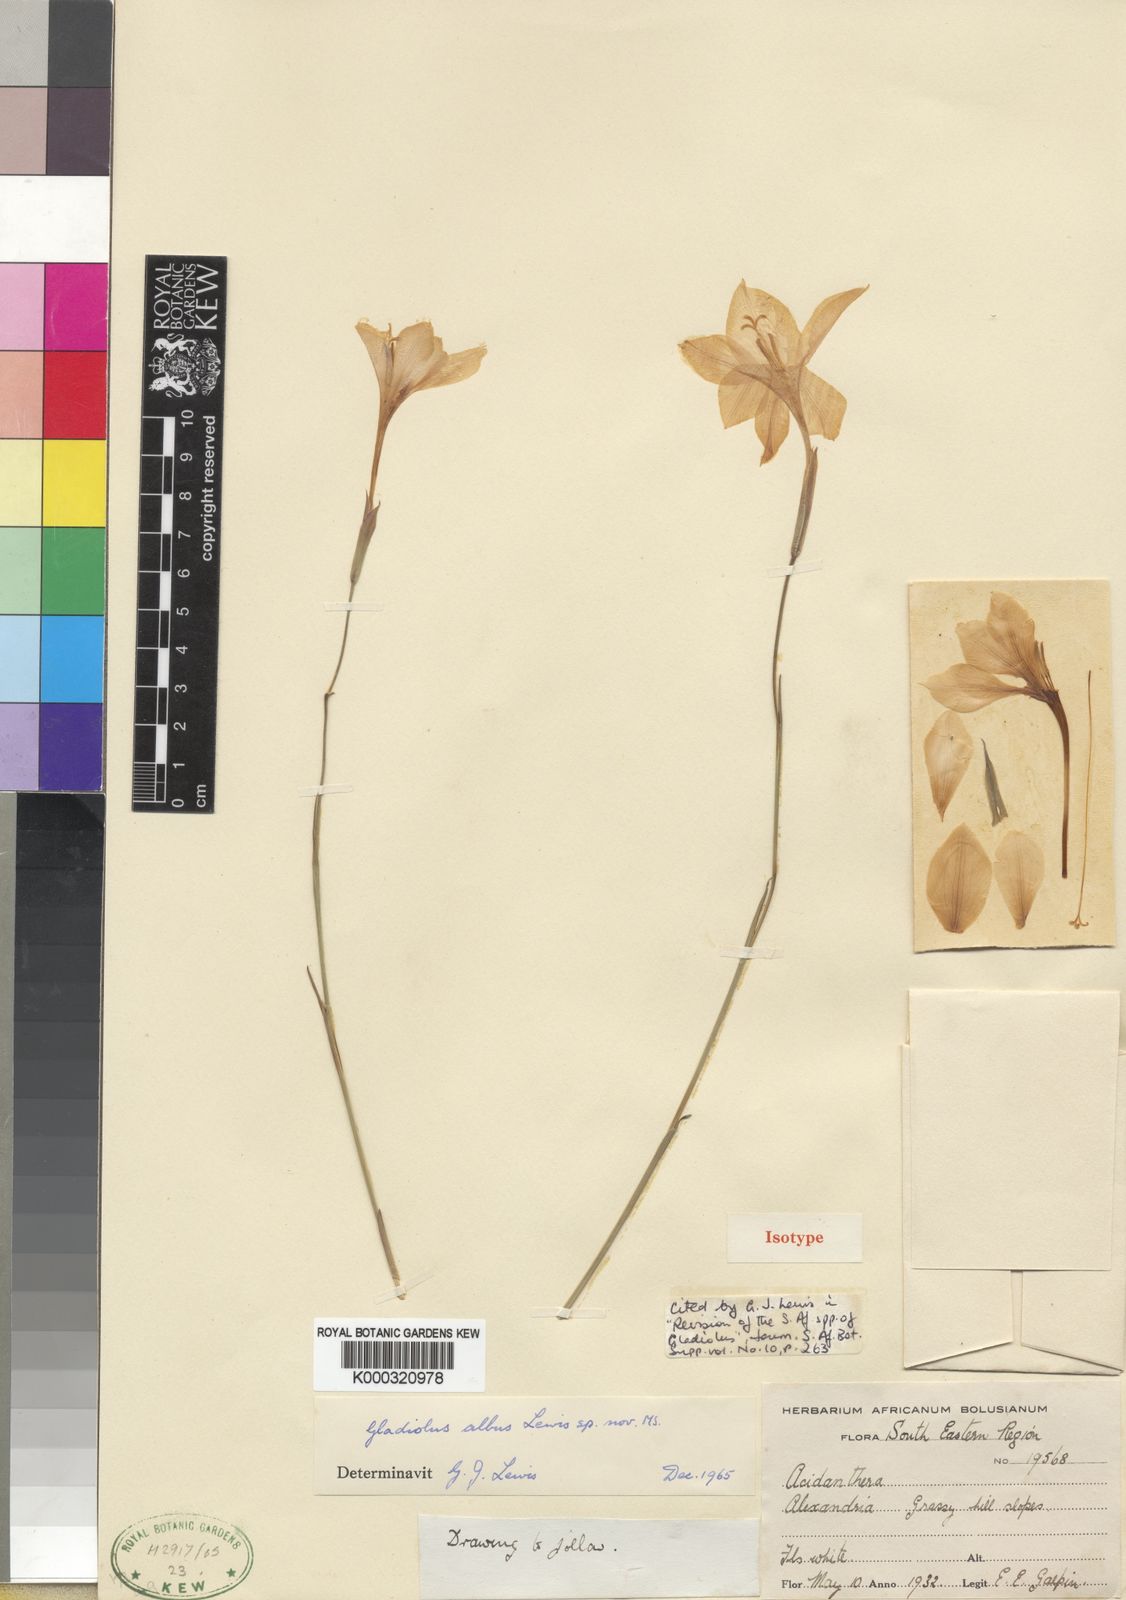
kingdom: Plantae
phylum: Tracheophyta
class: Liliopsida
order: Asparagales
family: Iridaceae
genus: Gladiolus
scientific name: Gladiolus albens
